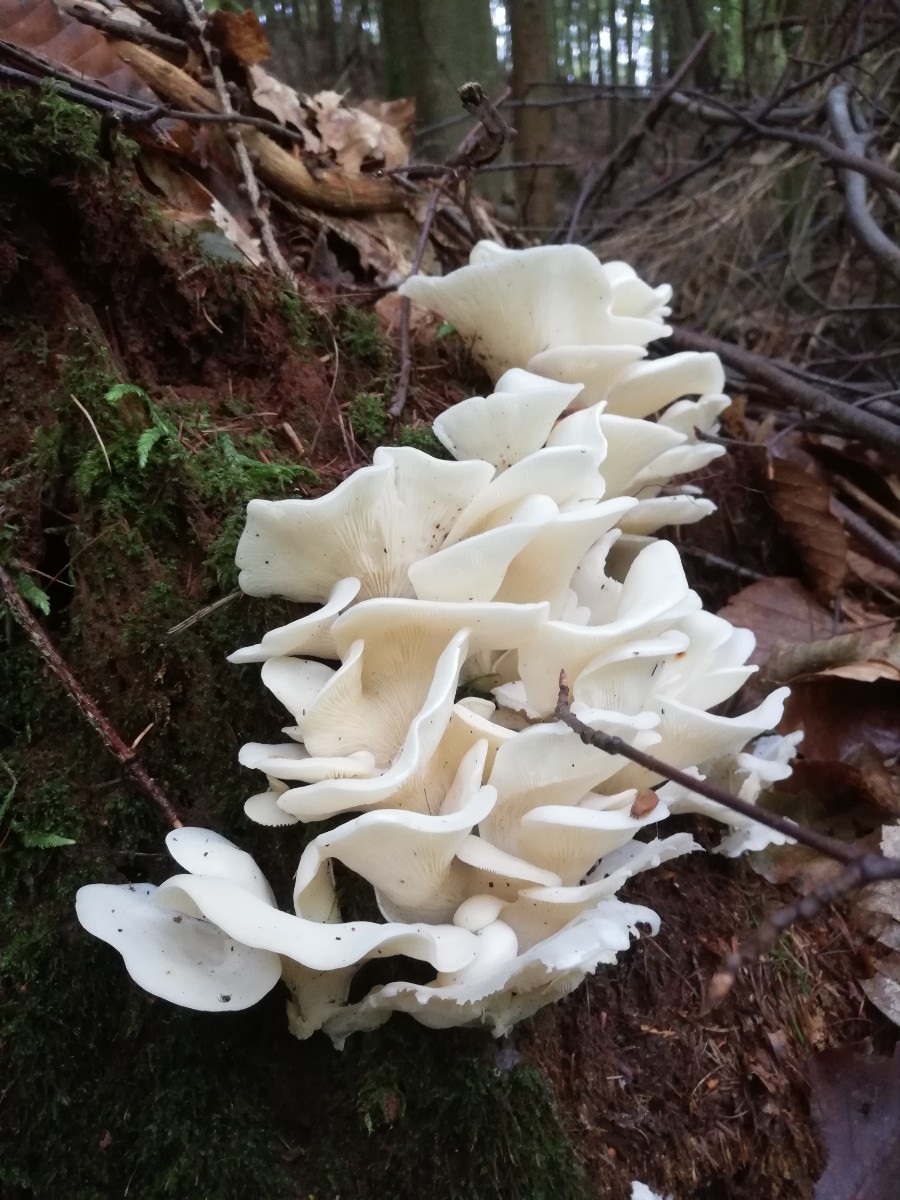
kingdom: Fungi
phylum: Basidiomycota
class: Agaricomycetes
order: Agaricales
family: Marasmiaceae
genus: Pleurocybella
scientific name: Pleurocybella porrigens
